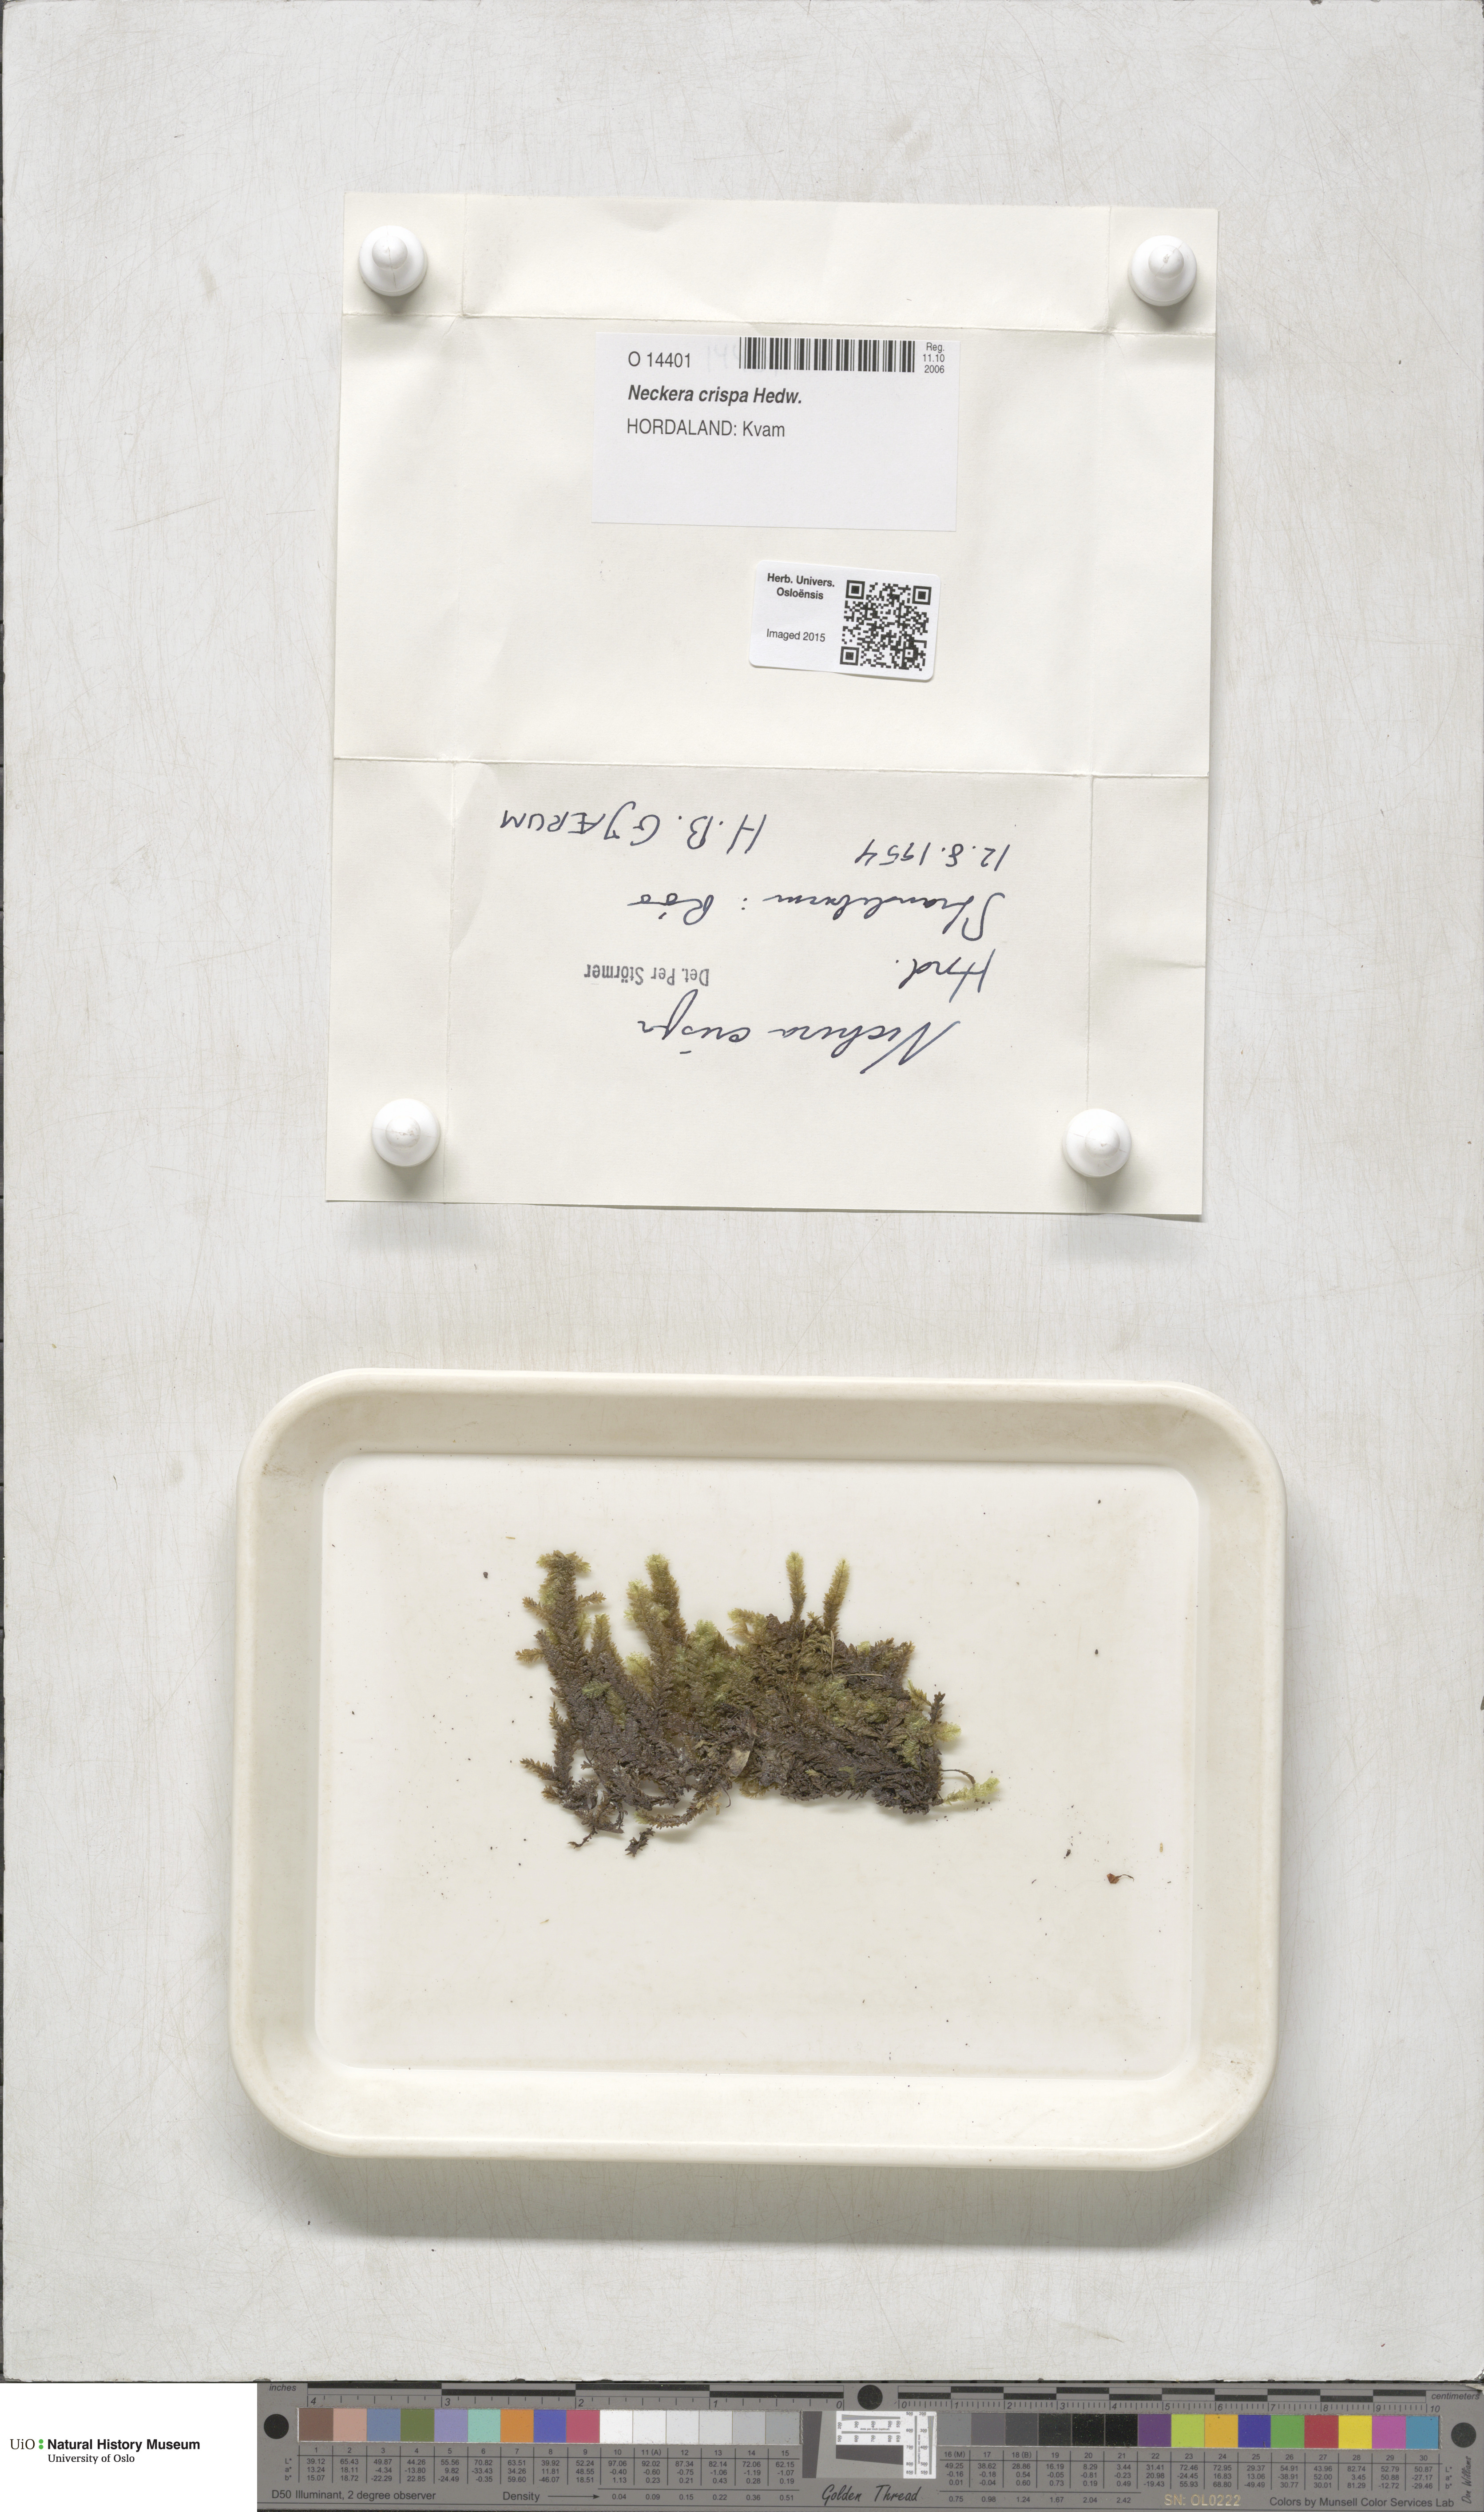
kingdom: Plantae
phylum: Bryophyta
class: Bryopsida
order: Hypnales
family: Neckeraceae
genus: Exsertotheca
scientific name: Exsertotheca crispa
